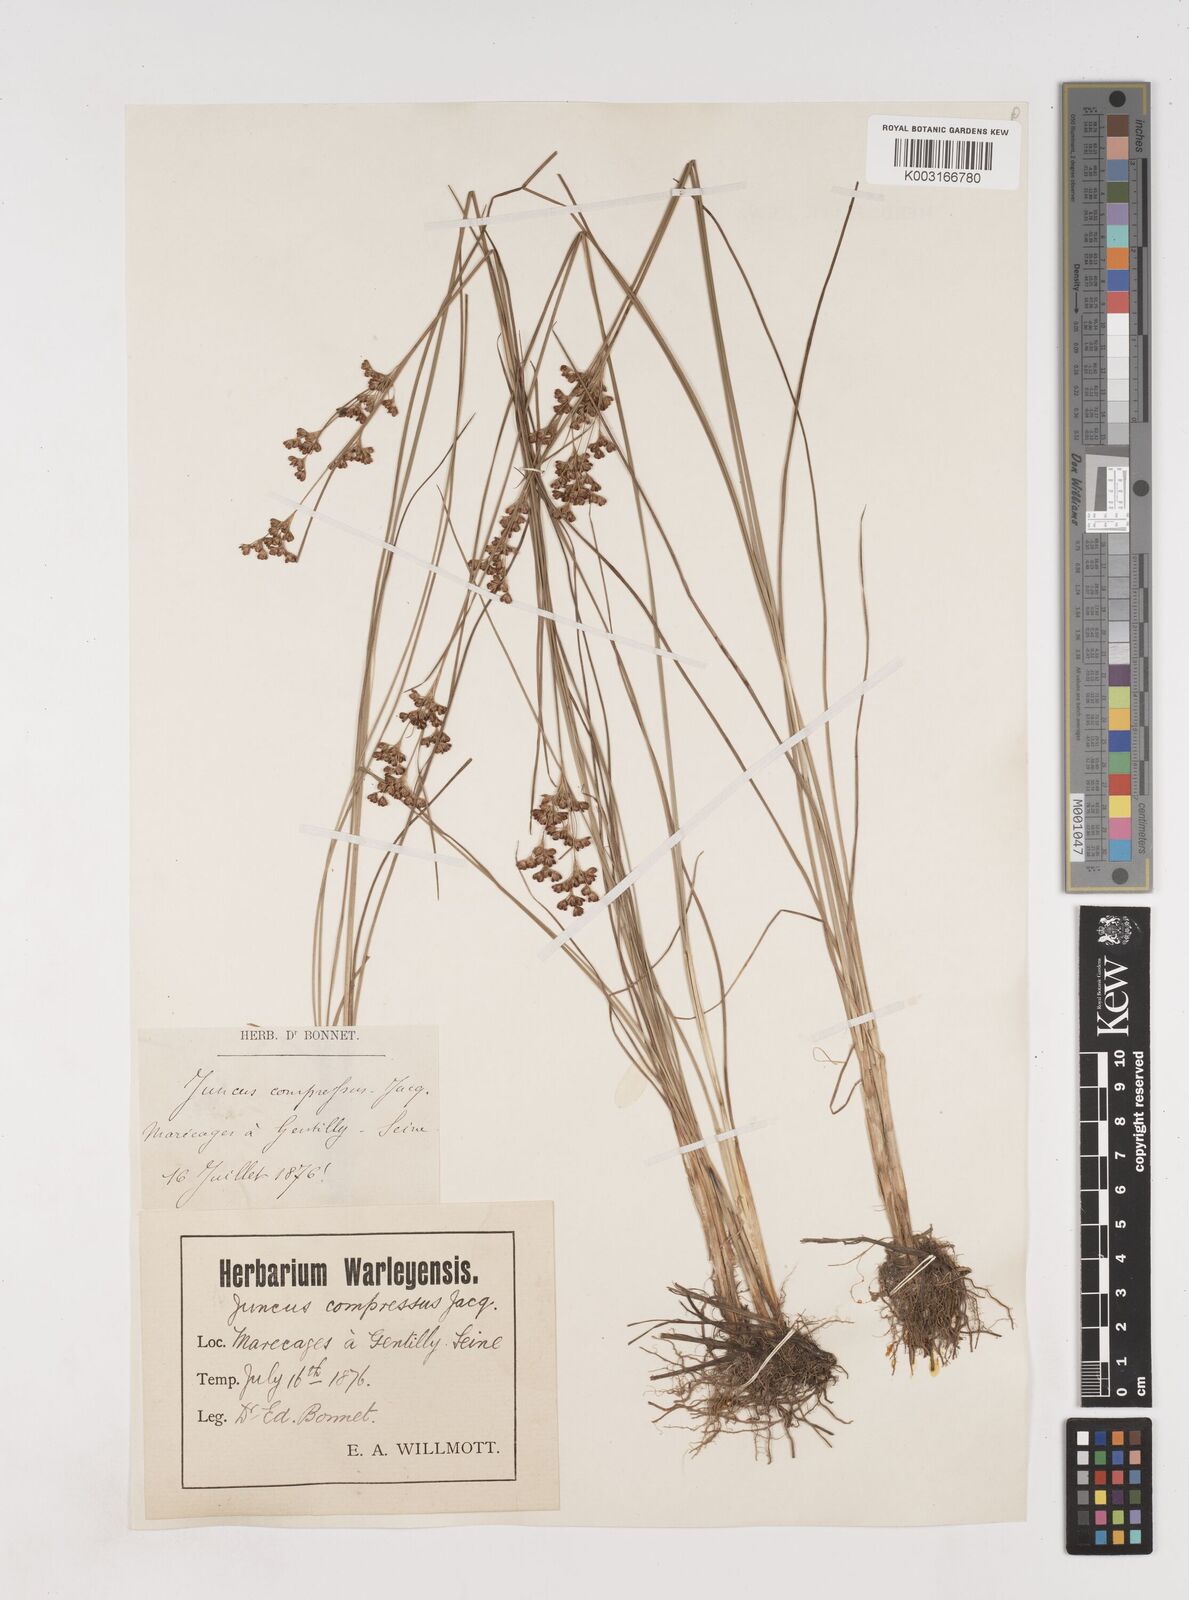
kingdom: Plantae
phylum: Tracheophyta
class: Liliopsida
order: Poales
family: Juncaceae
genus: Juncus
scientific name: Juncus compressus
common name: Round-fruited rush
